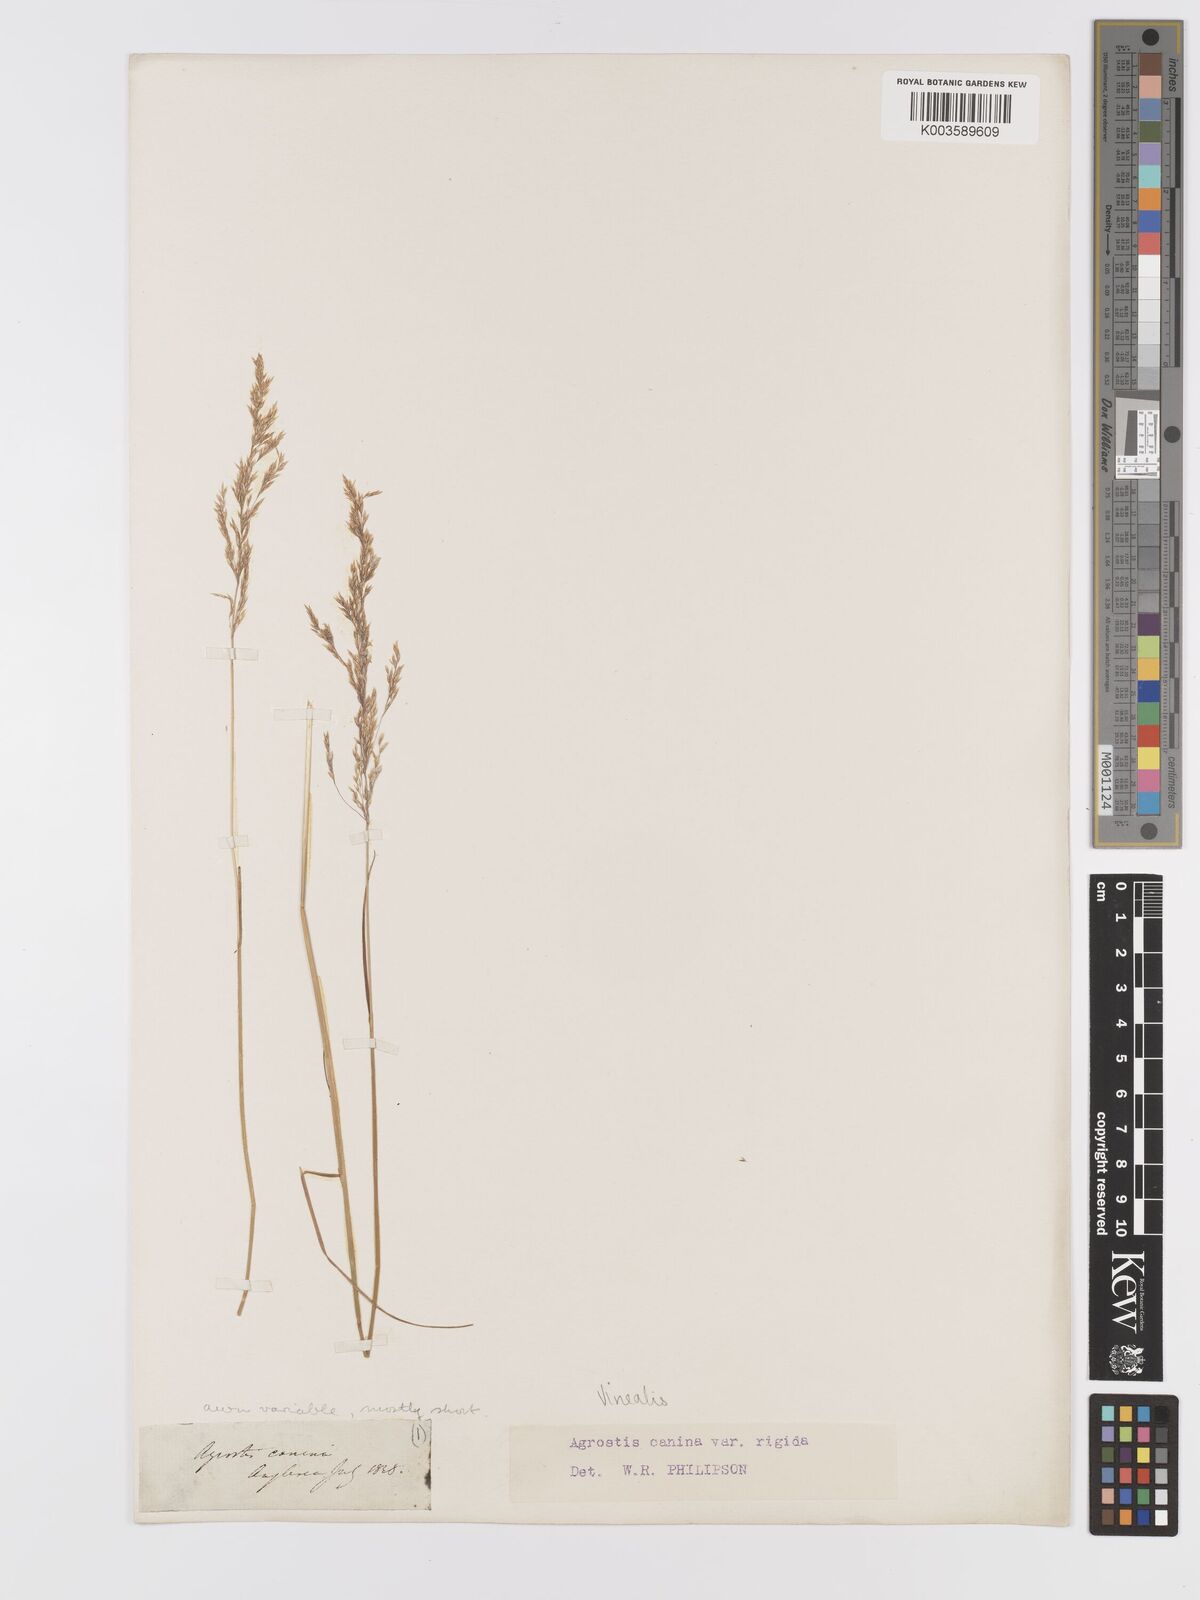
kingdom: Plantae
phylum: Tracheophyta
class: Liliopsida
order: Poales
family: Poaceae
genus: Agrostis
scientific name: Agrostis
